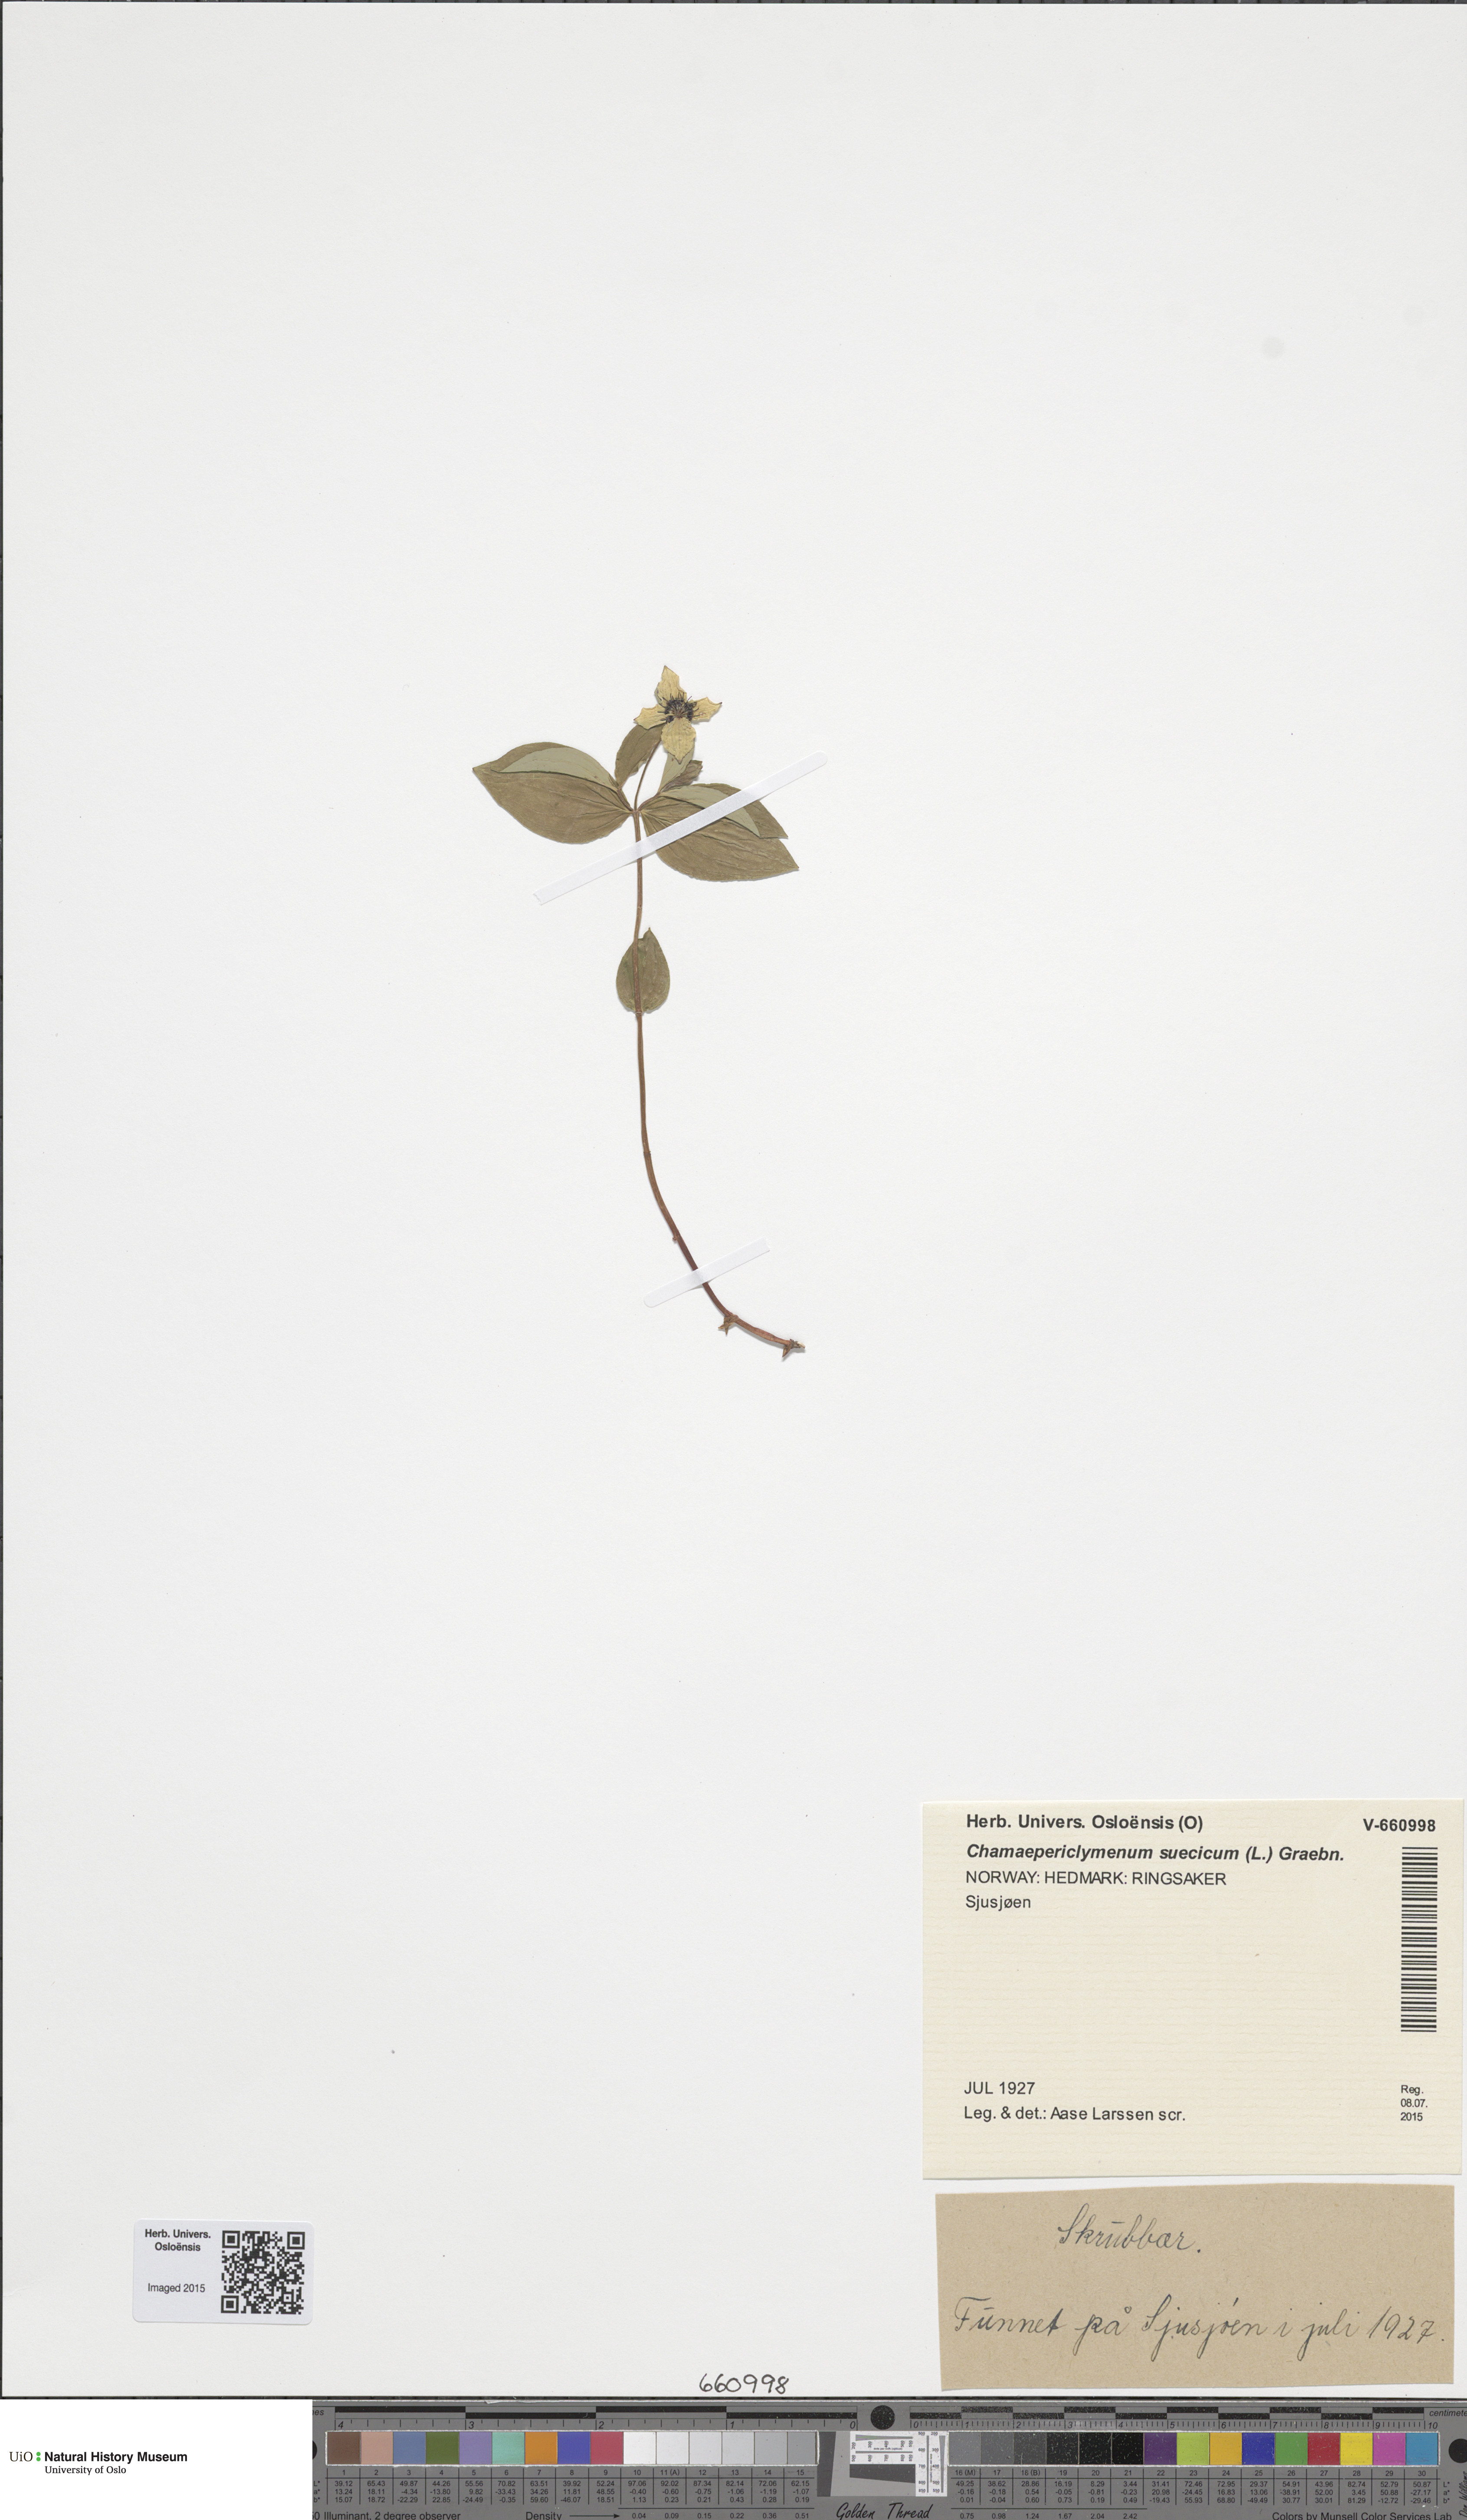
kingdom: Plantae
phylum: Tracheophyta
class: Magnoliopsida
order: Cornales
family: Cornaceae
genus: Cornus
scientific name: Cornus suecica
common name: Dwarf cornel
